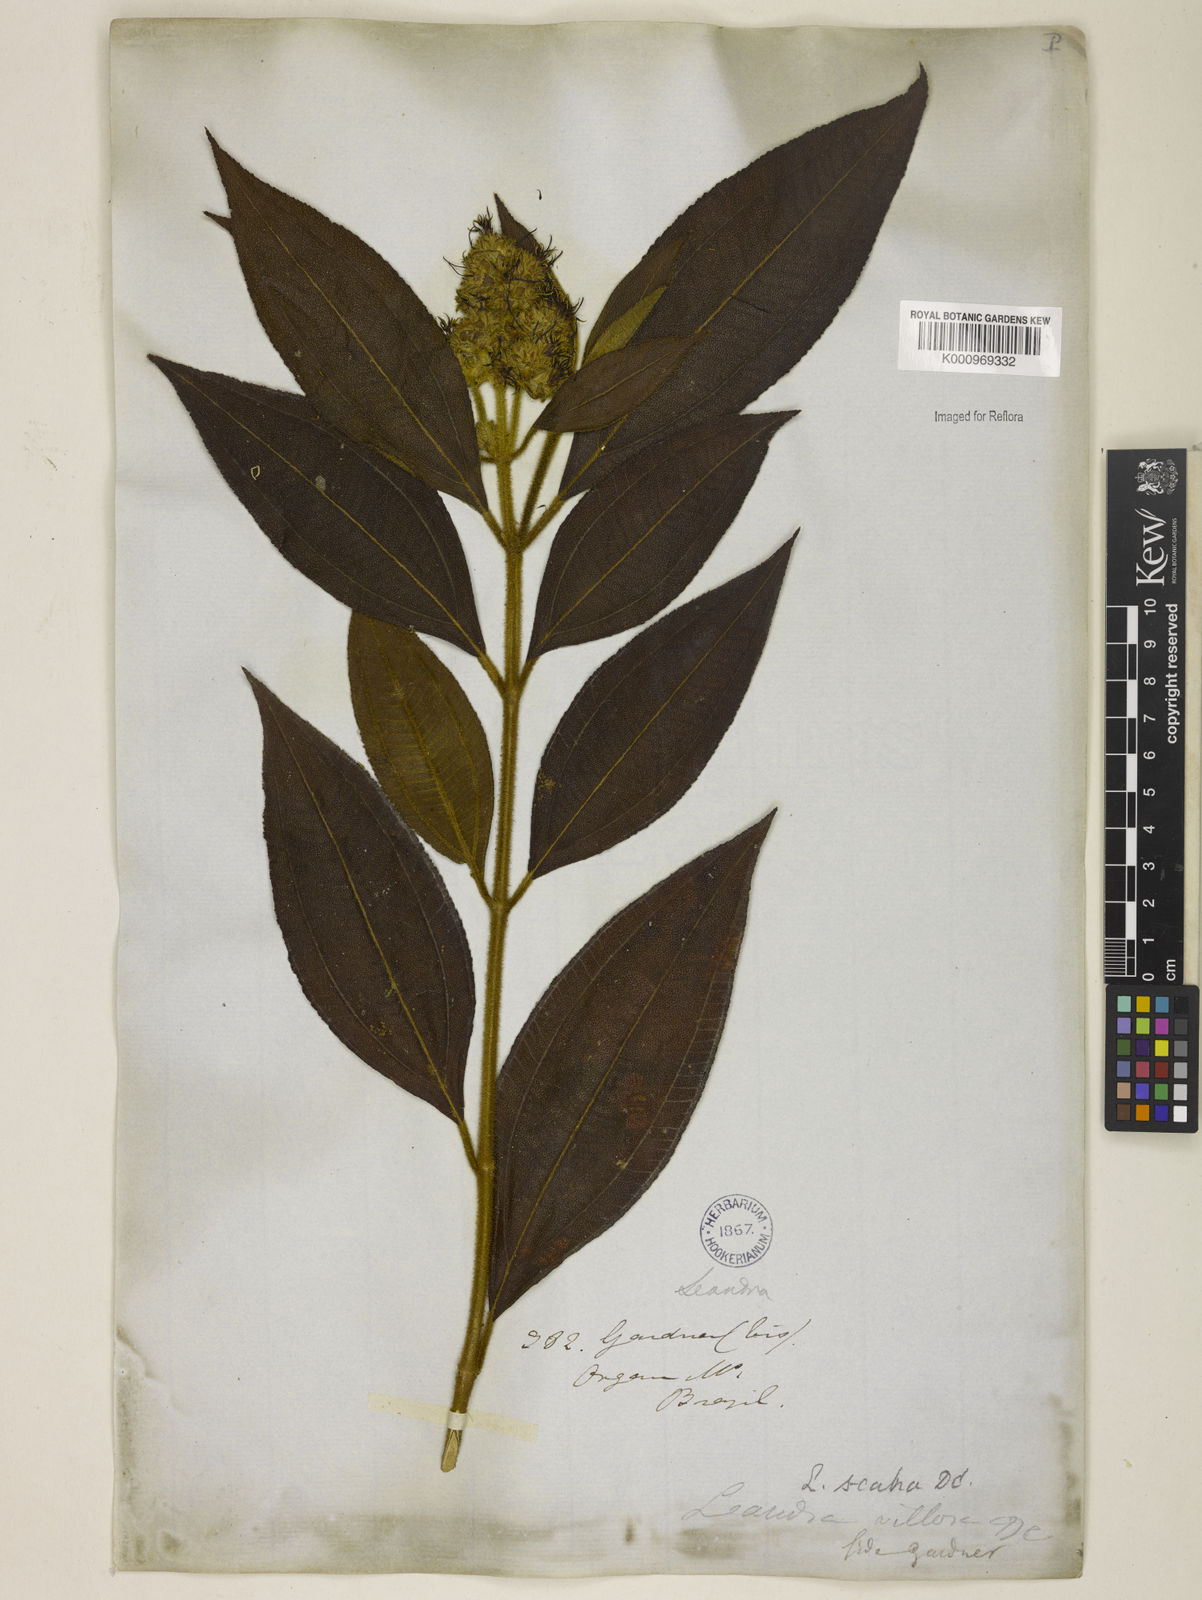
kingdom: Plantae
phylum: Tracheophyta
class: Magnoliopsida
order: Myrtales
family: Melastomataceae
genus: Miconia
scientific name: Miconia melastomoides
